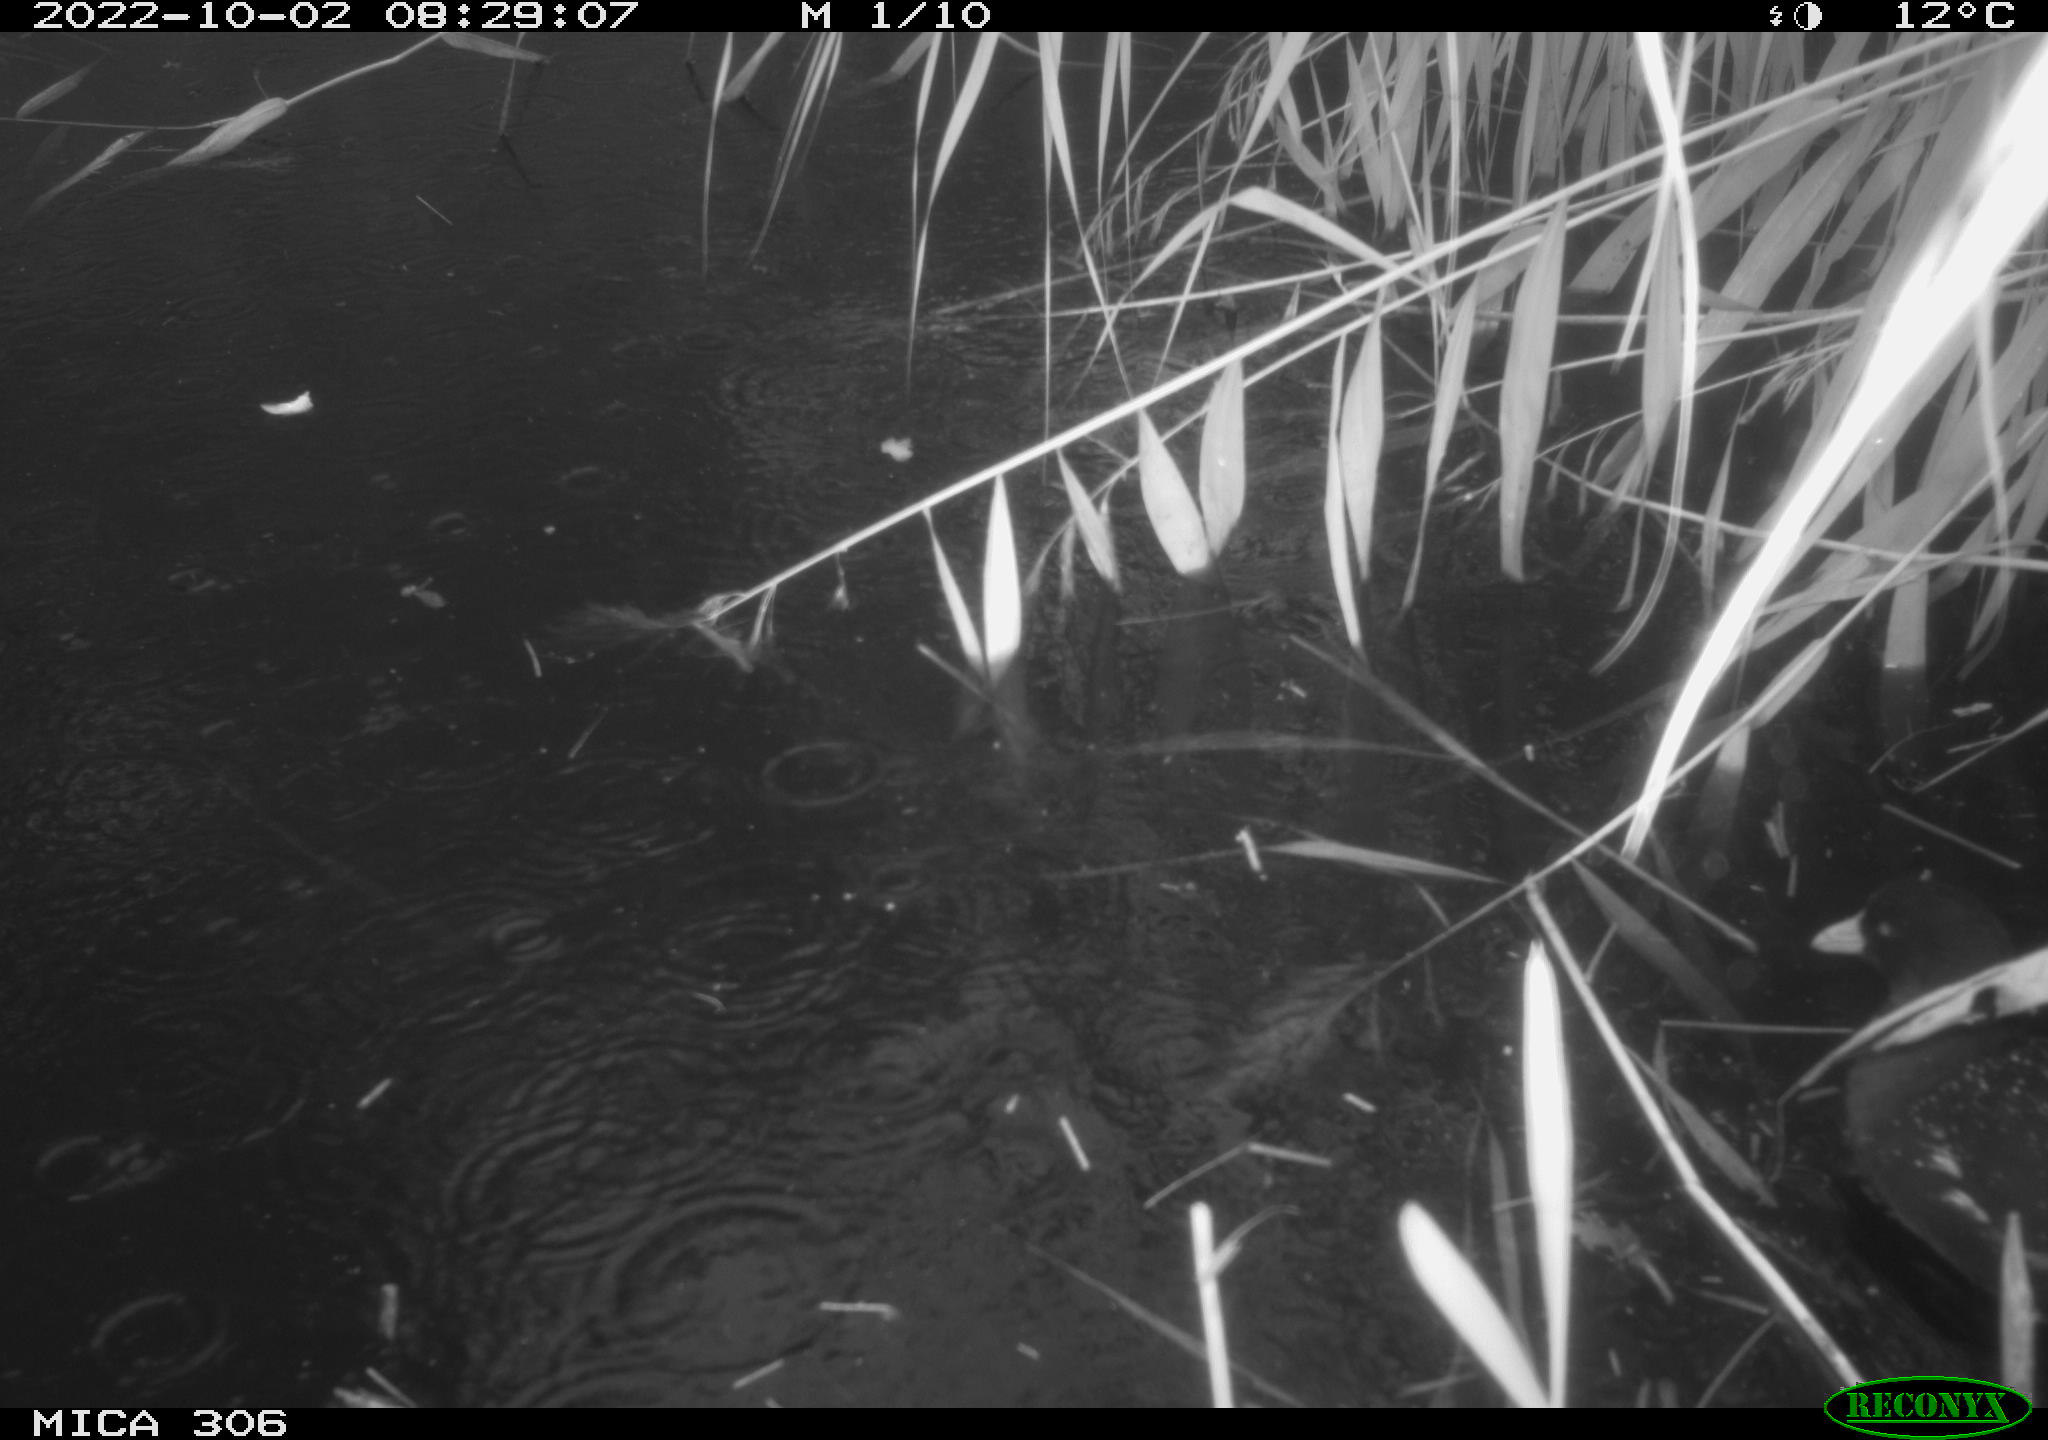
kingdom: Animalia
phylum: Chordata
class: Aves
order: Gruiformes
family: Rallidae
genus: Gallinula
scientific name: Gallinula chloropus
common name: Common moorhen
